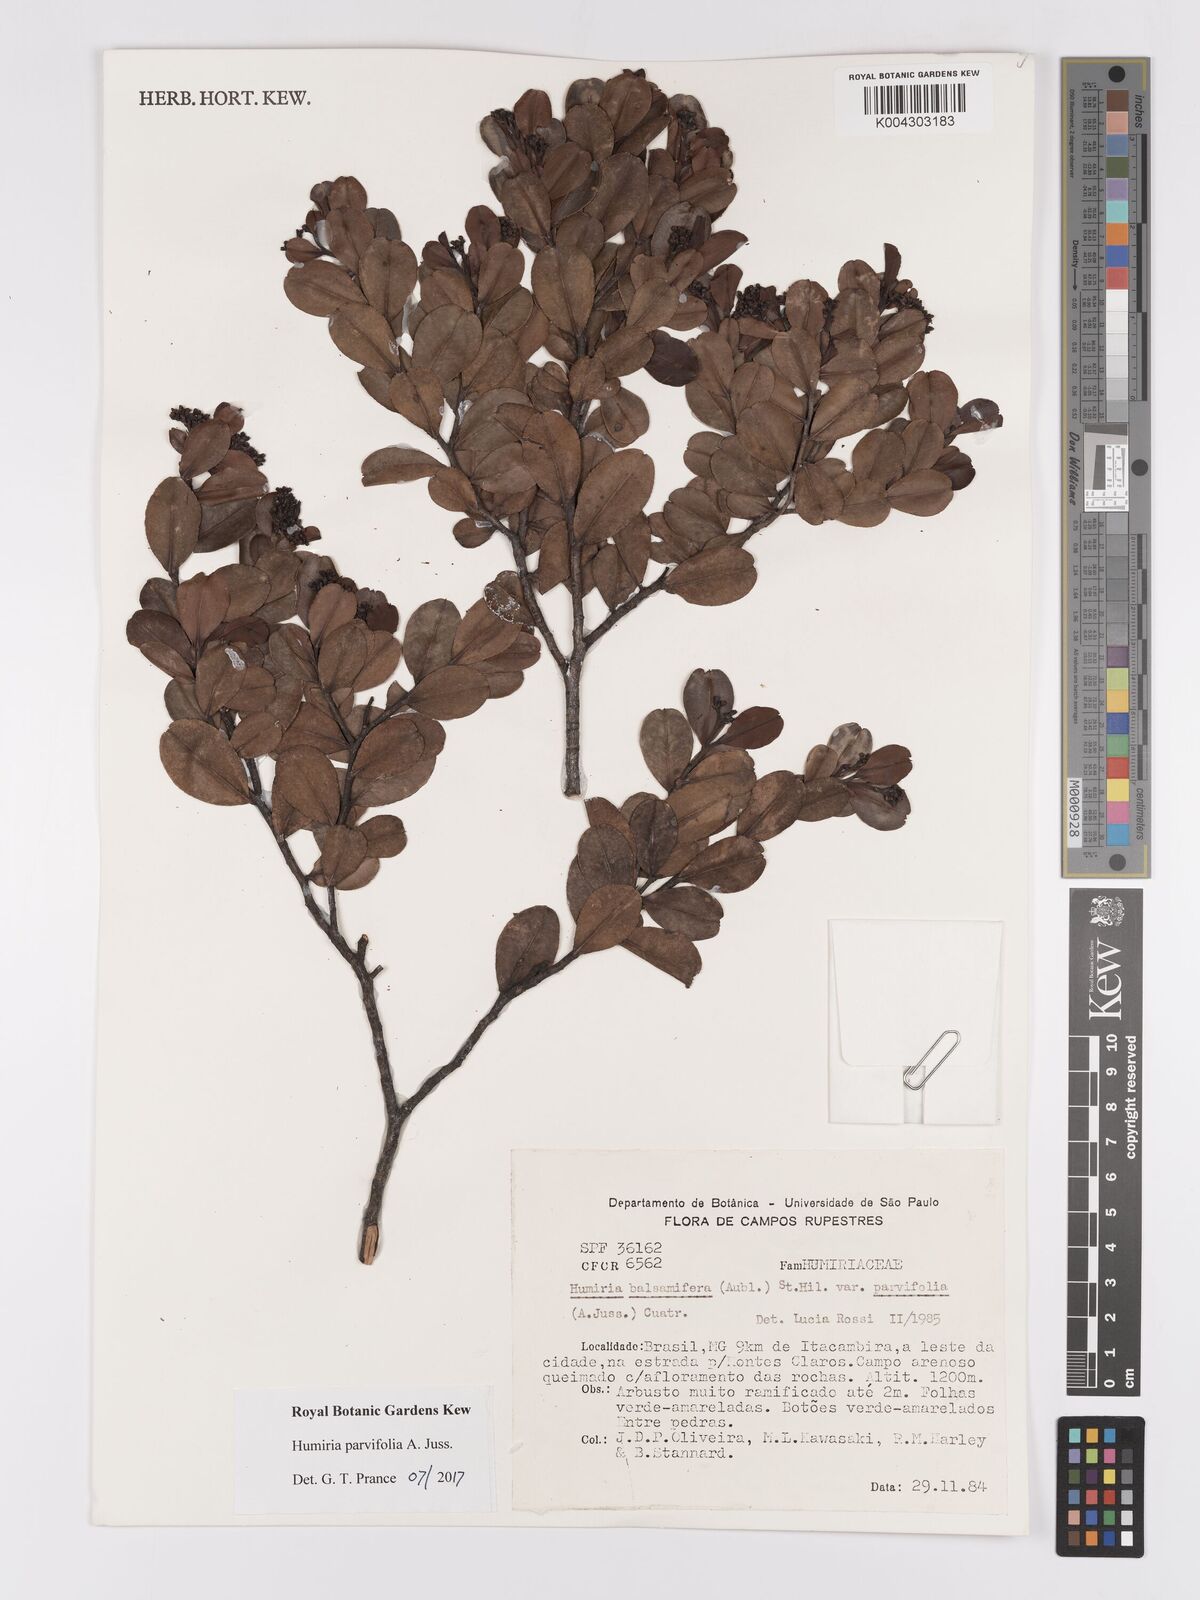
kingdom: Plantae
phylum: Tracheophyta
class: Magnoliopsida
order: Malpighiales
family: Humiriaceae
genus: Humiria
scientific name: Humiria parvifolia
